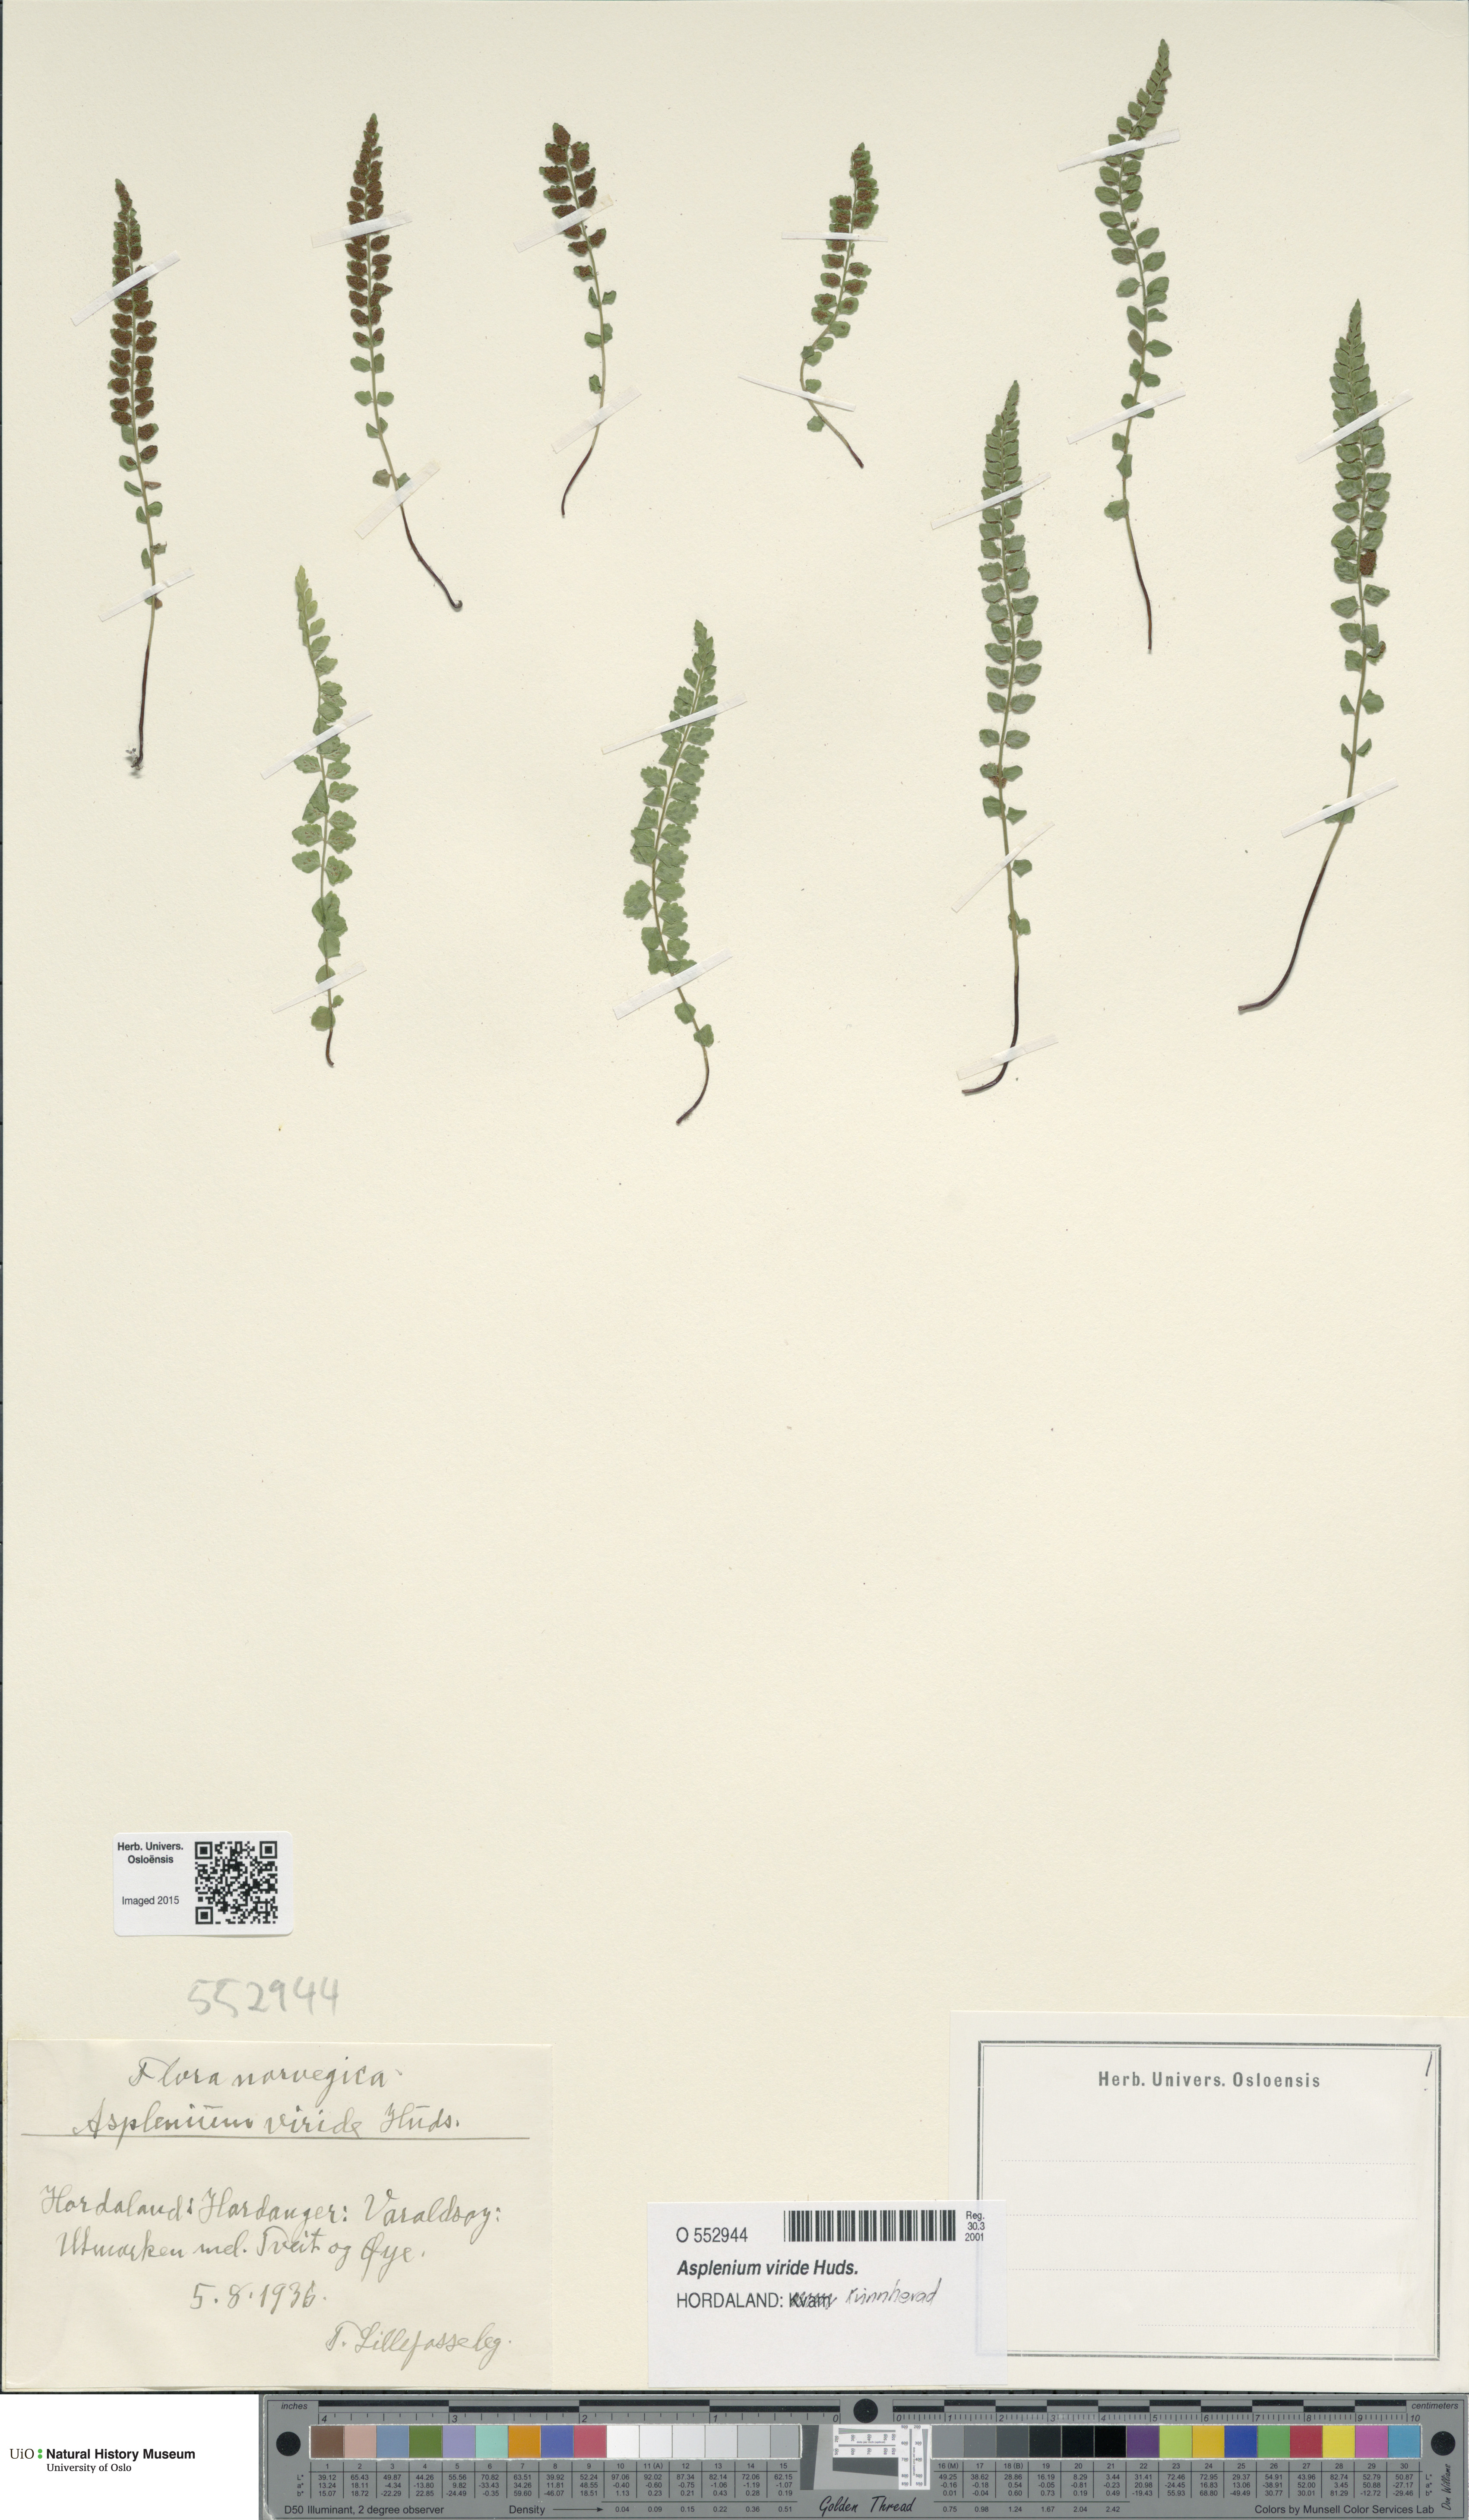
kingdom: Plantae
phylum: Tracheophyta
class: Polypodiopsida
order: Polypodiales
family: Aspleniaceae
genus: Asplenium
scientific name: Asplenium viride
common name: Green spleenwort
